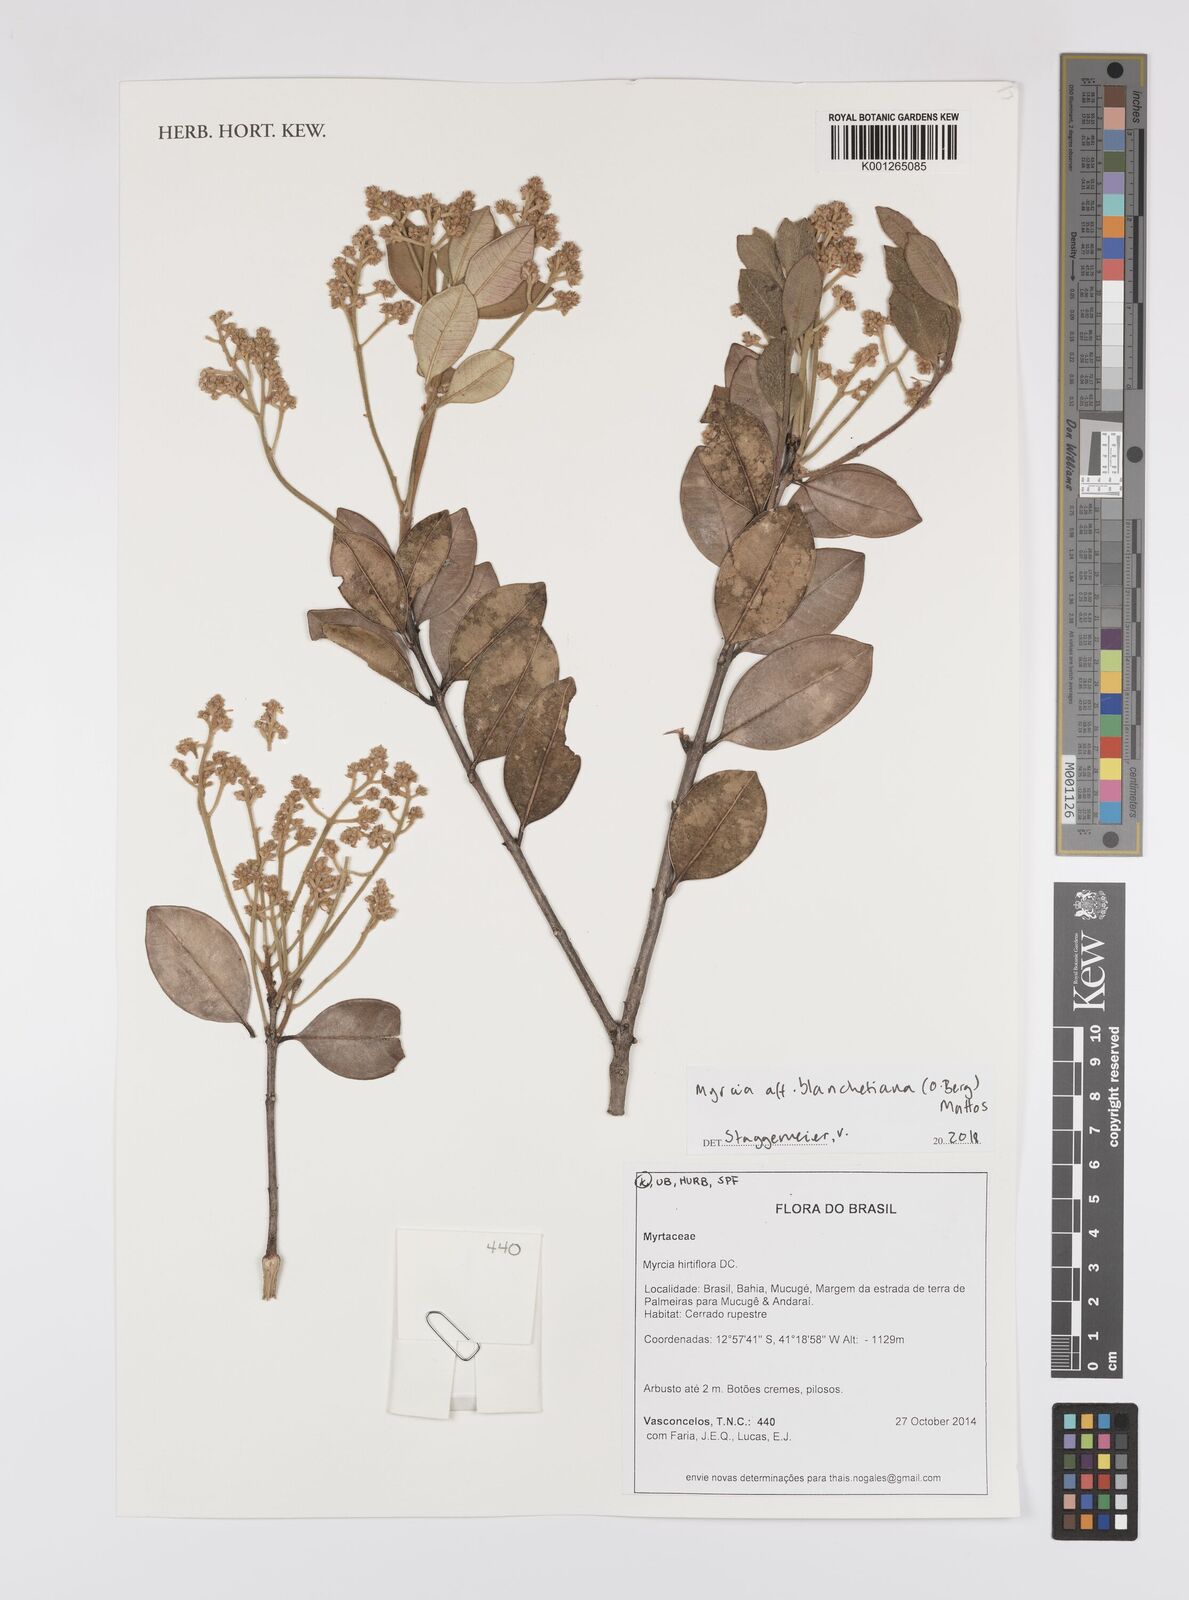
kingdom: Plantae
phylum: Tracheophyta
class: Magnoliopsida
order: Myrtales
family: Myrtaceae
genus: Myrcia
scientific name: Myrcia blanchetiana
